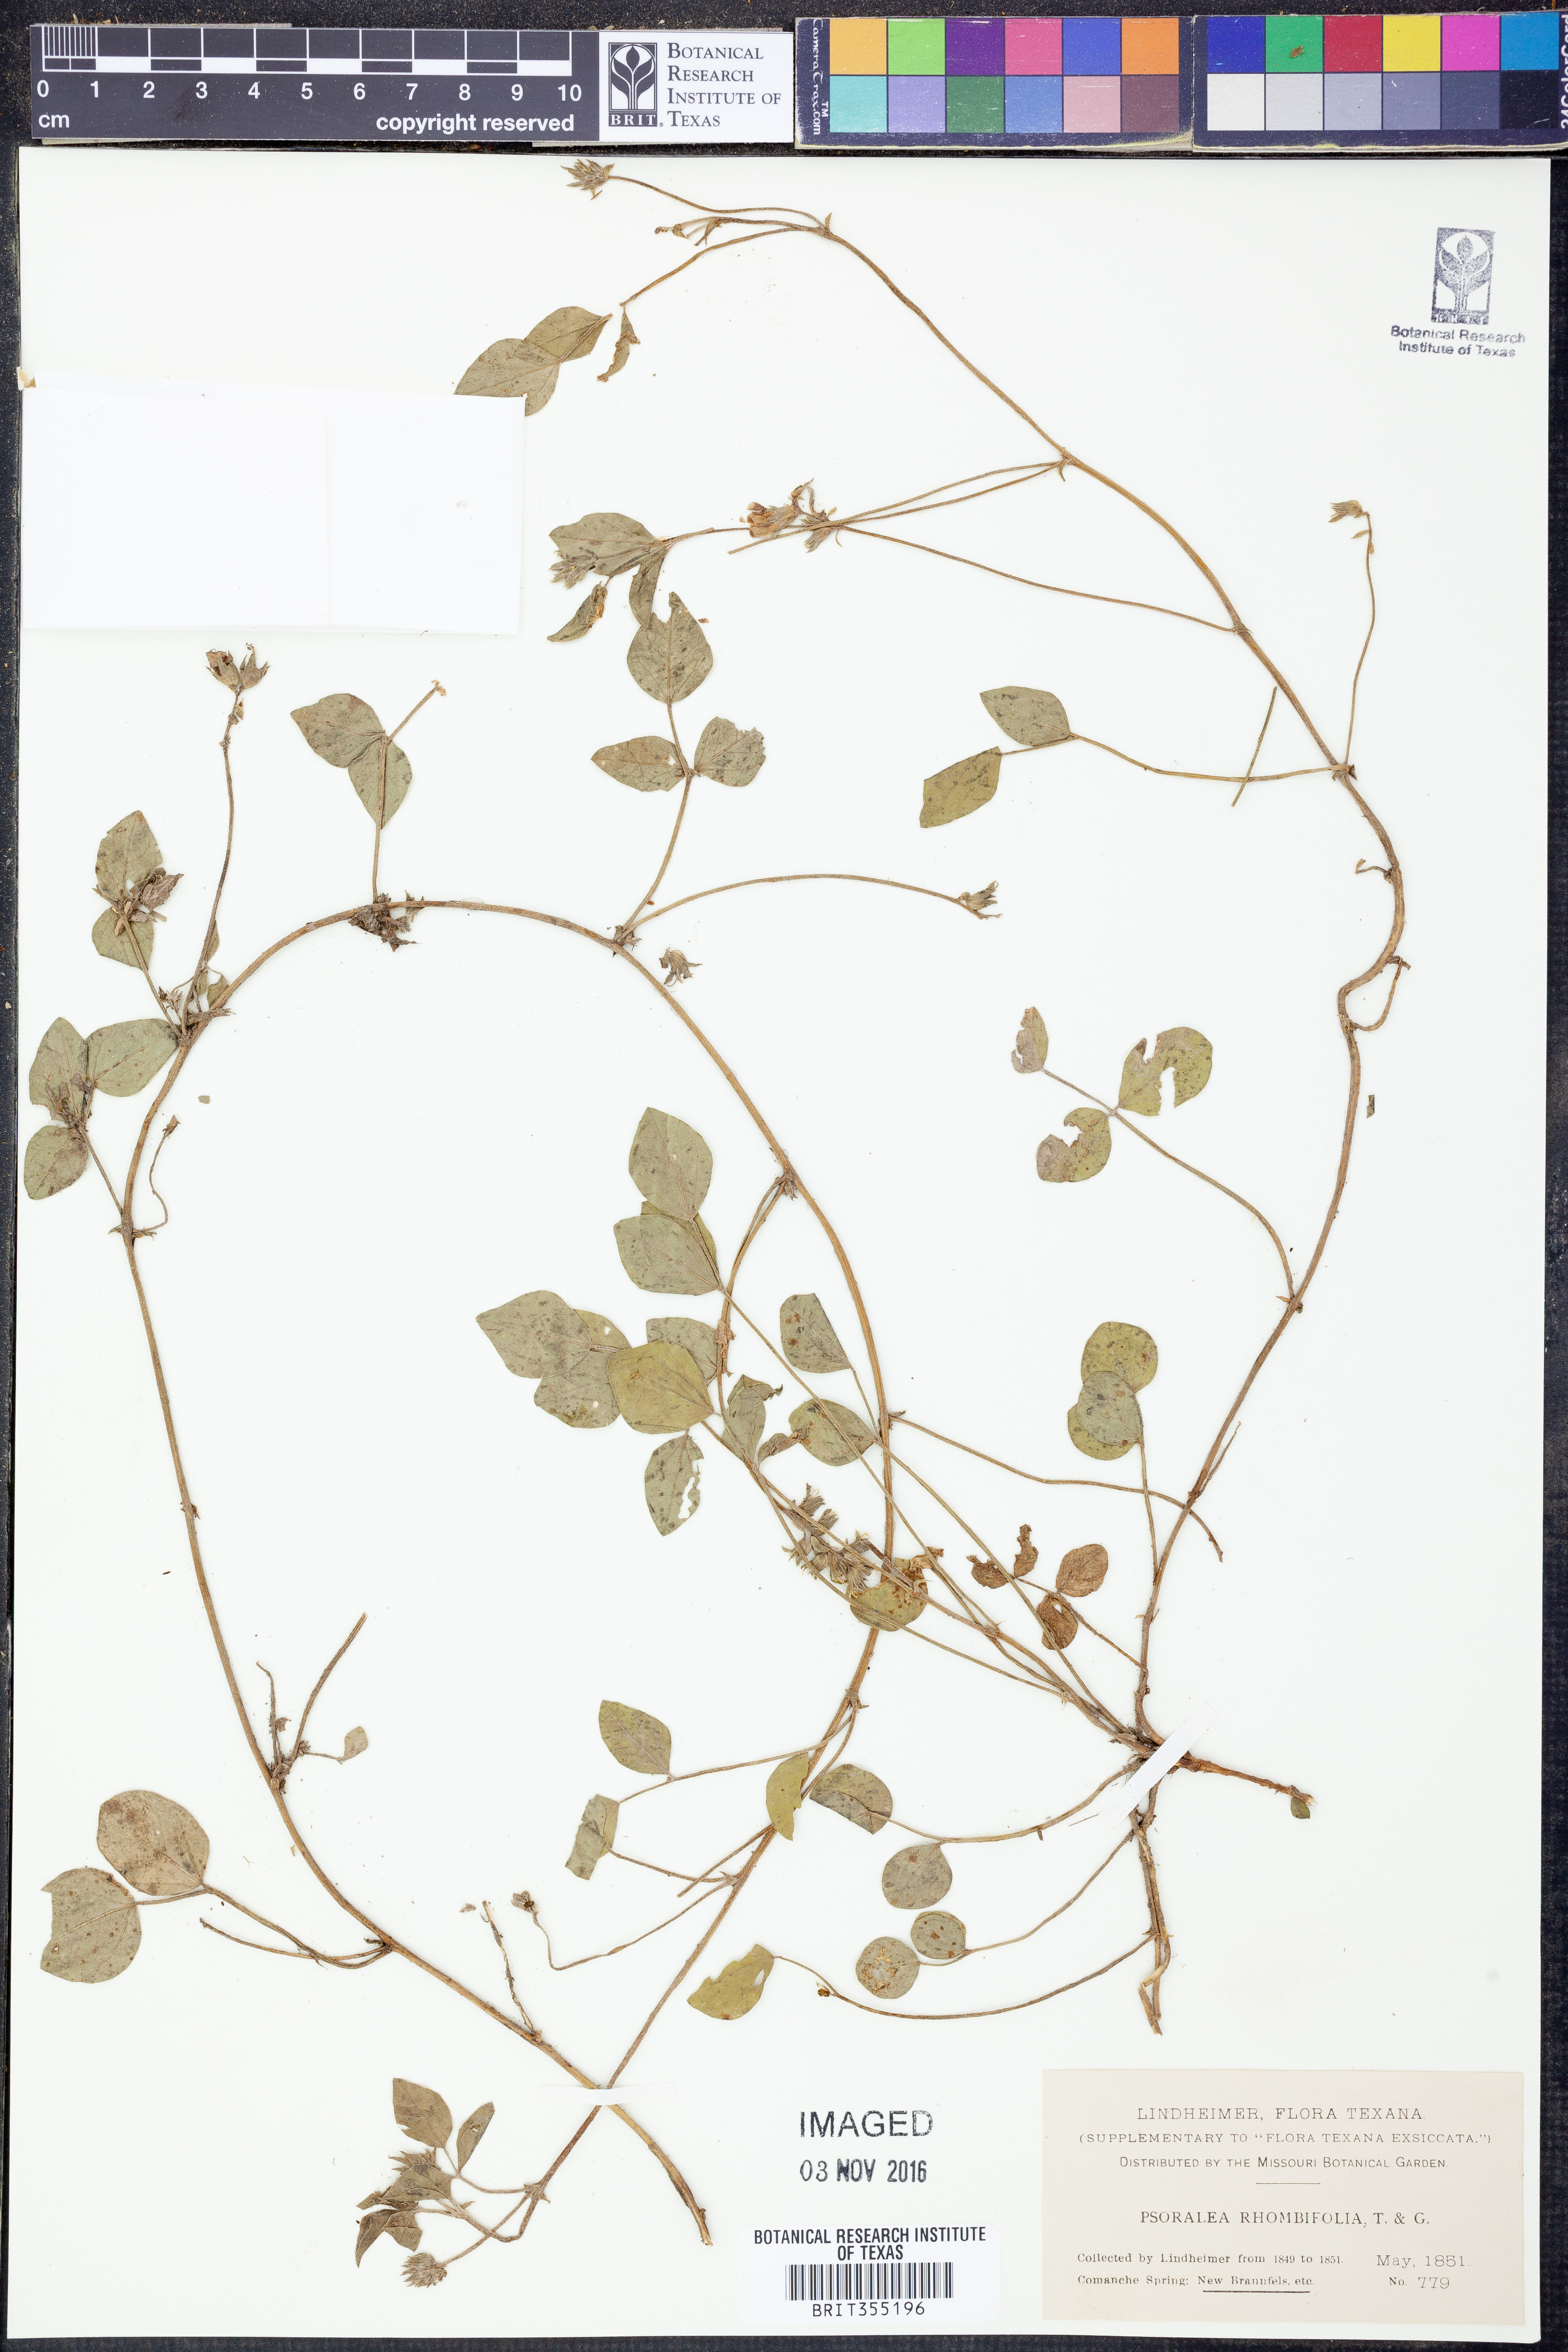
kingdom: Plantae
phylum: Tracheophyta
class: Magnoliopsida
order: Fabales
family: Fabaceae
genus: Pediomelum
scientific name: Pediomelum rhombifolium
